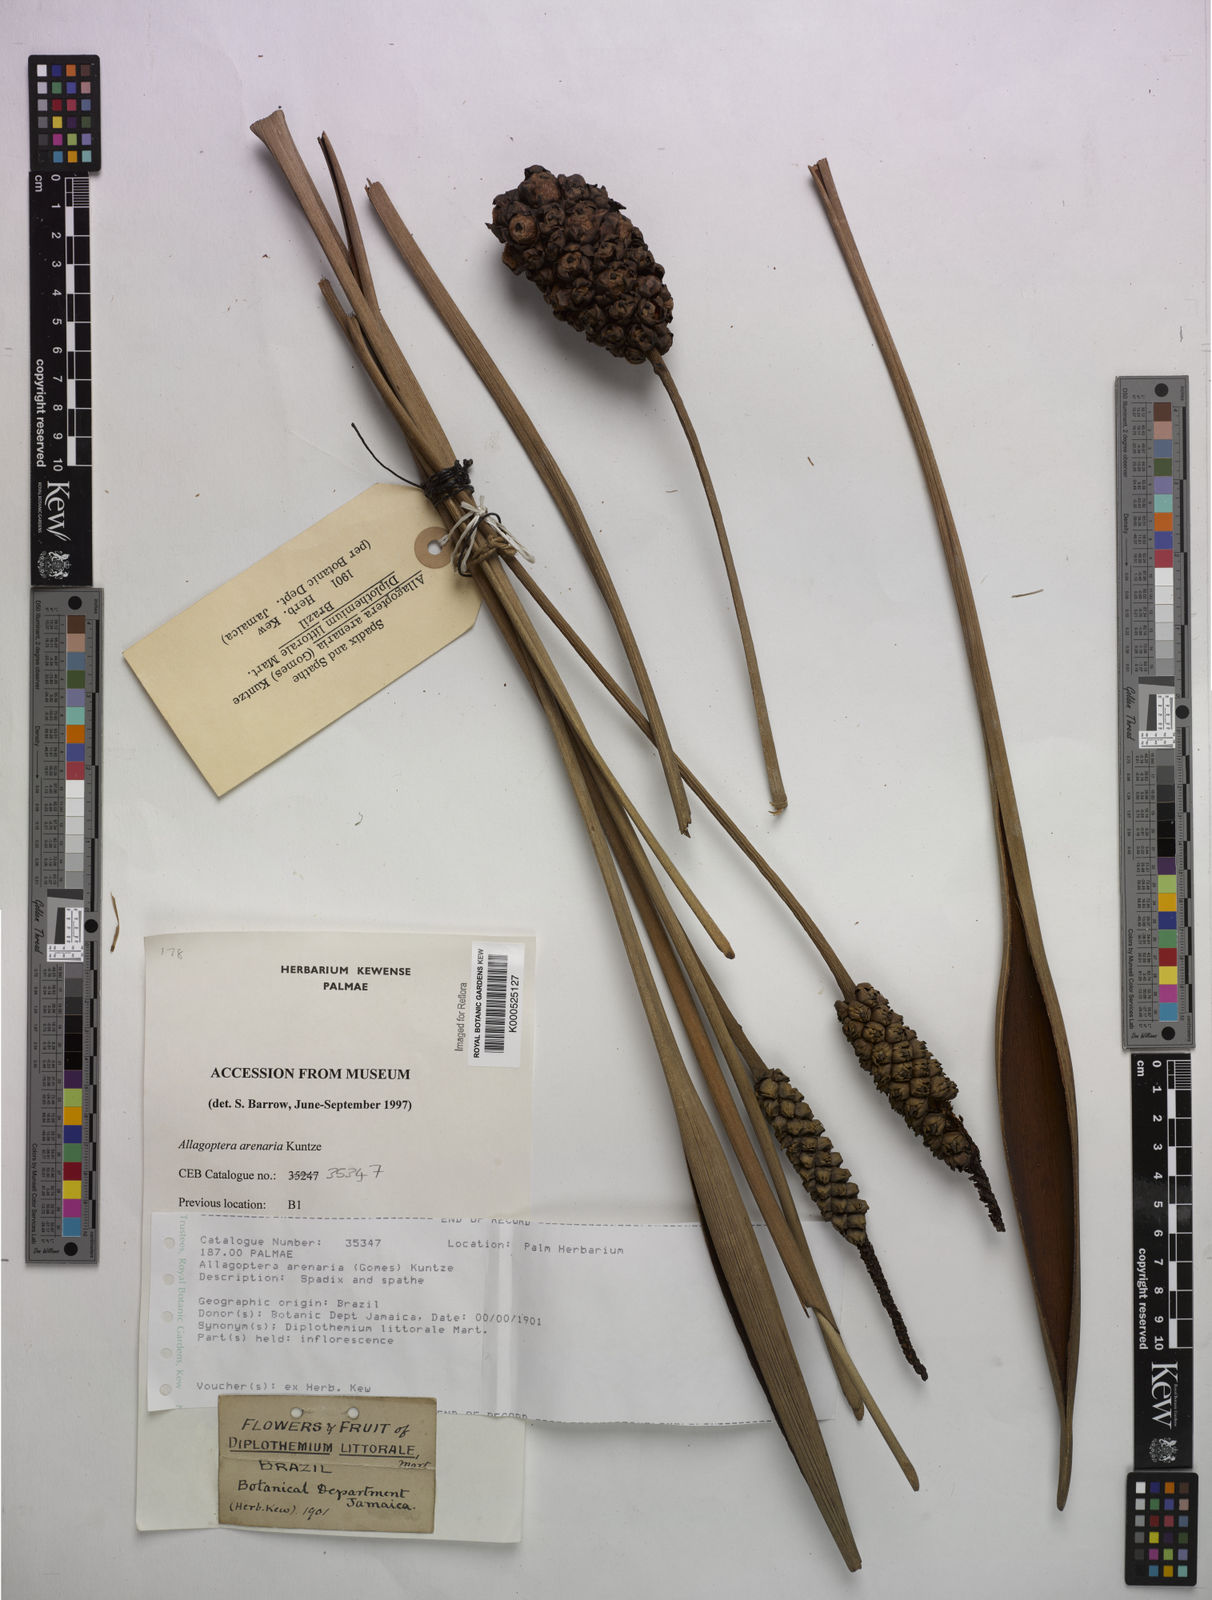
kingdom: Plantae
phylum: Tracheophyta
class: Liliopsida
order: Arecales
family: Arecaceae
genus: Allagoptera
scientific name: Allagoptera arenaria
